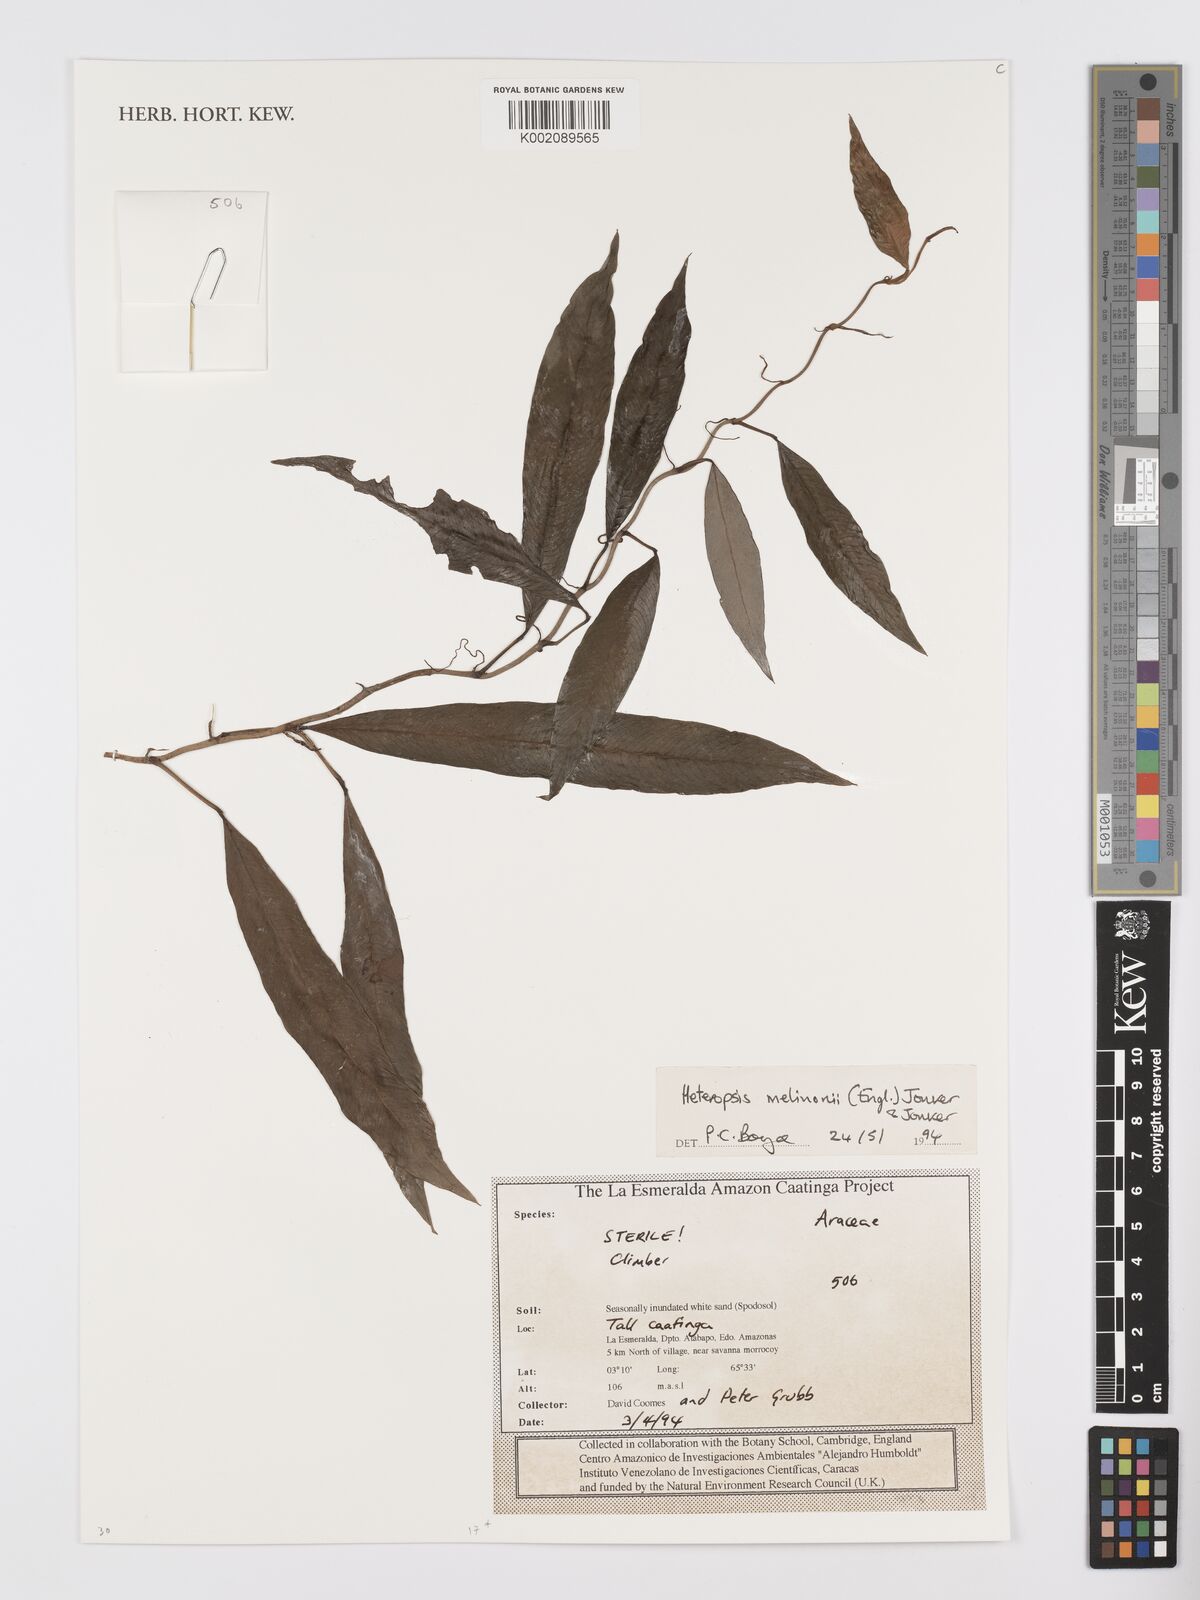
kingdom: Plantae
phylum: Tracheophyta
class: Liliopsida
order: Alismatales
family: Araceae
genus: Heteropsis
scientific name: Heteropsis melinonii
